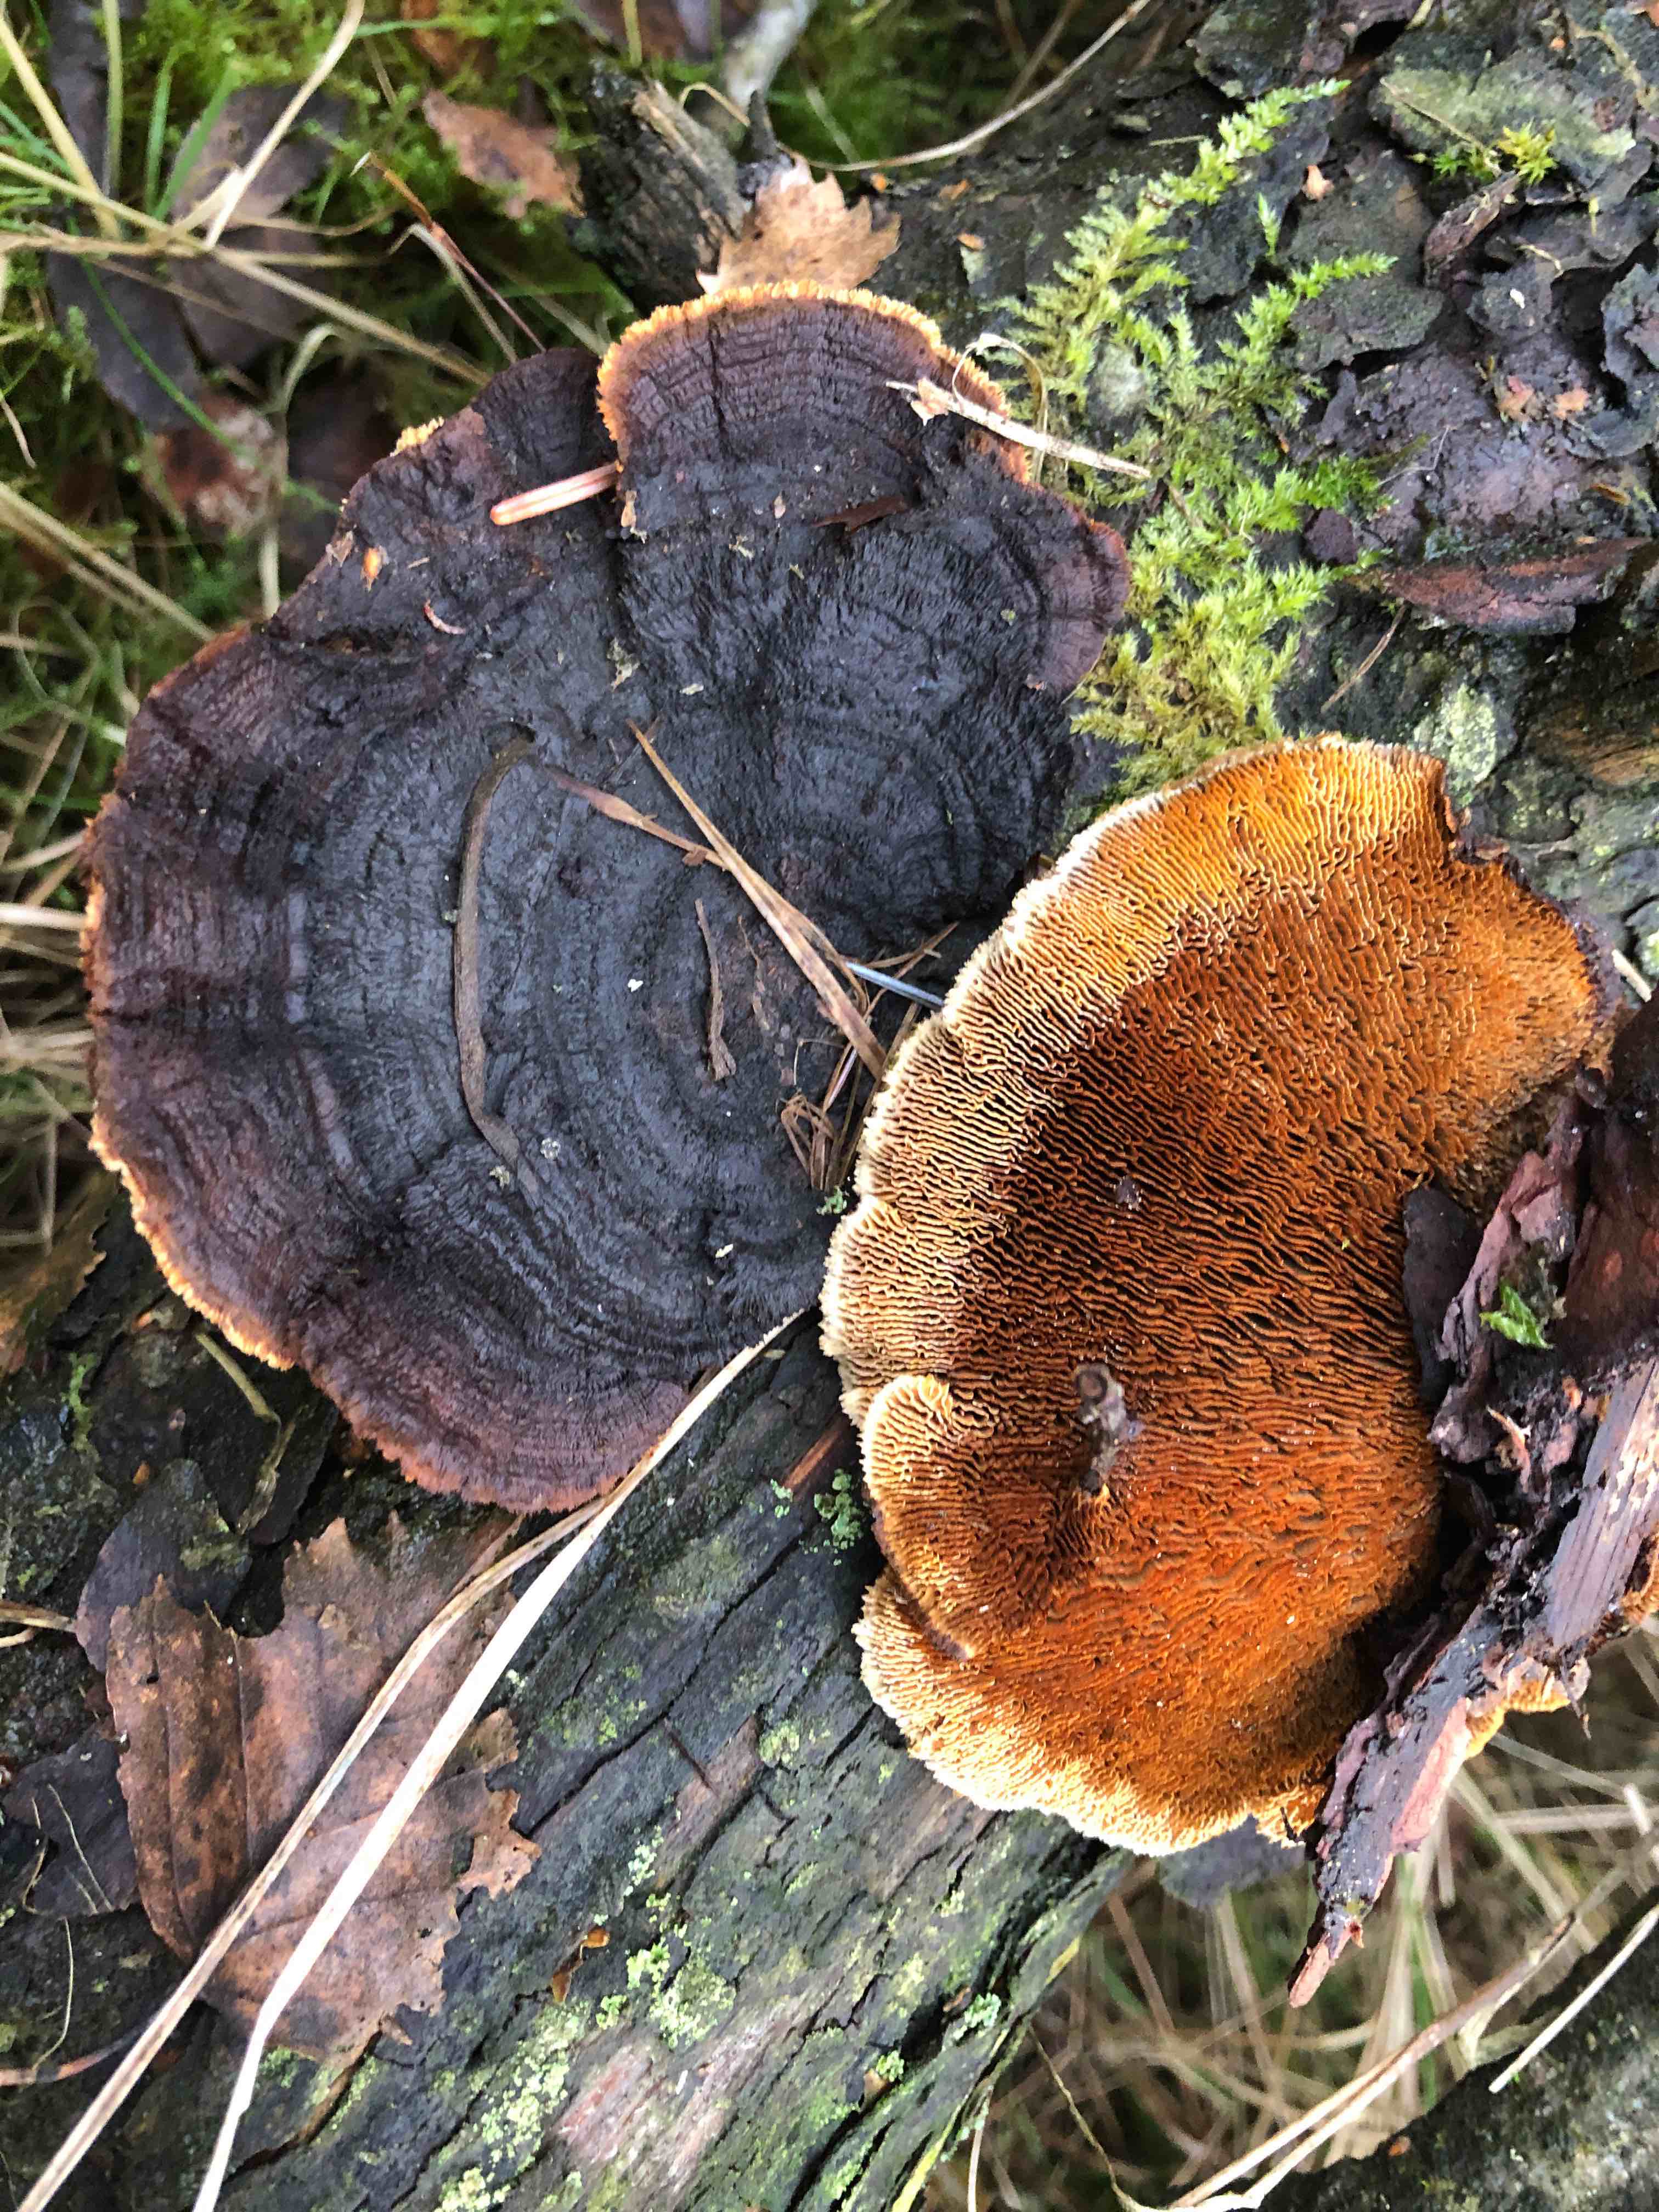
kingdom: Fungi
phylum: Basidiomycota
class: Agaricomycetes
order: Gloeophyllales
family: Gloeophyllaceae
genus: Gloeophyllum
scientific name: Gloeophyllum sepiarium
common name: fyrre-korkhat
